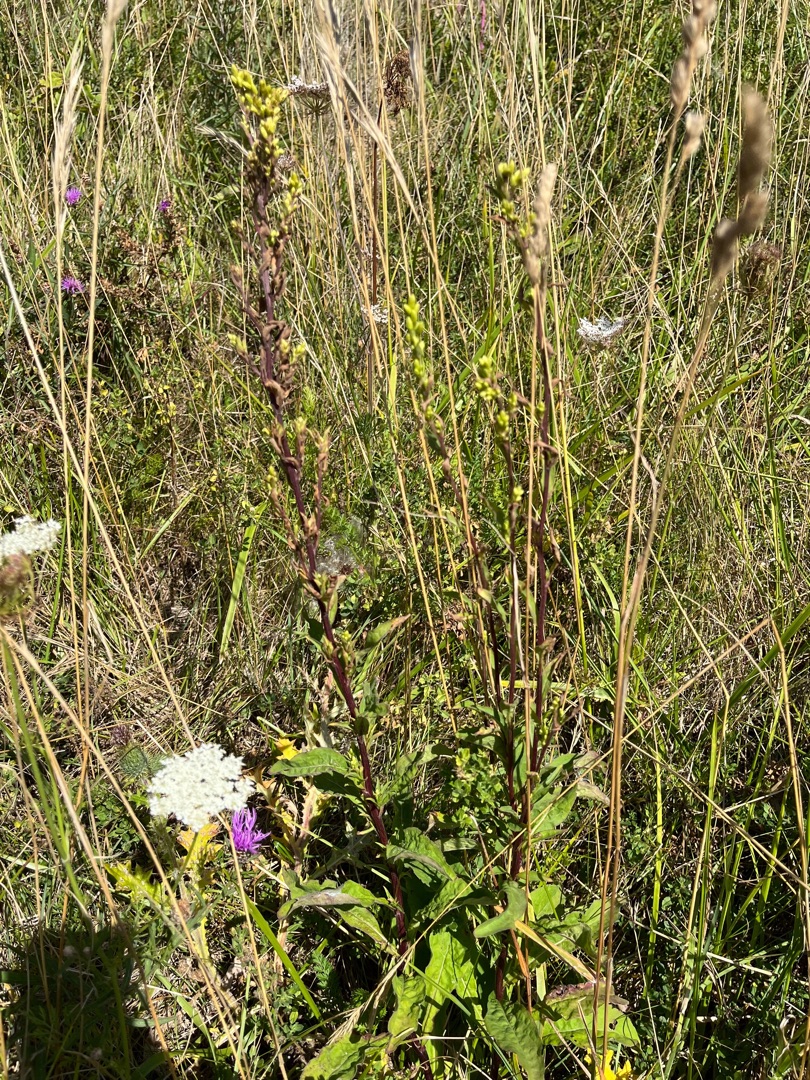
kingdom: Plantae
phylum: Tracheophyta
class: Magnoliopsida
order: Asterales
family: Asteraceae
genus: Solidago
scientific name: Solidago virgaurea
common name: Almindelig gyldenris
